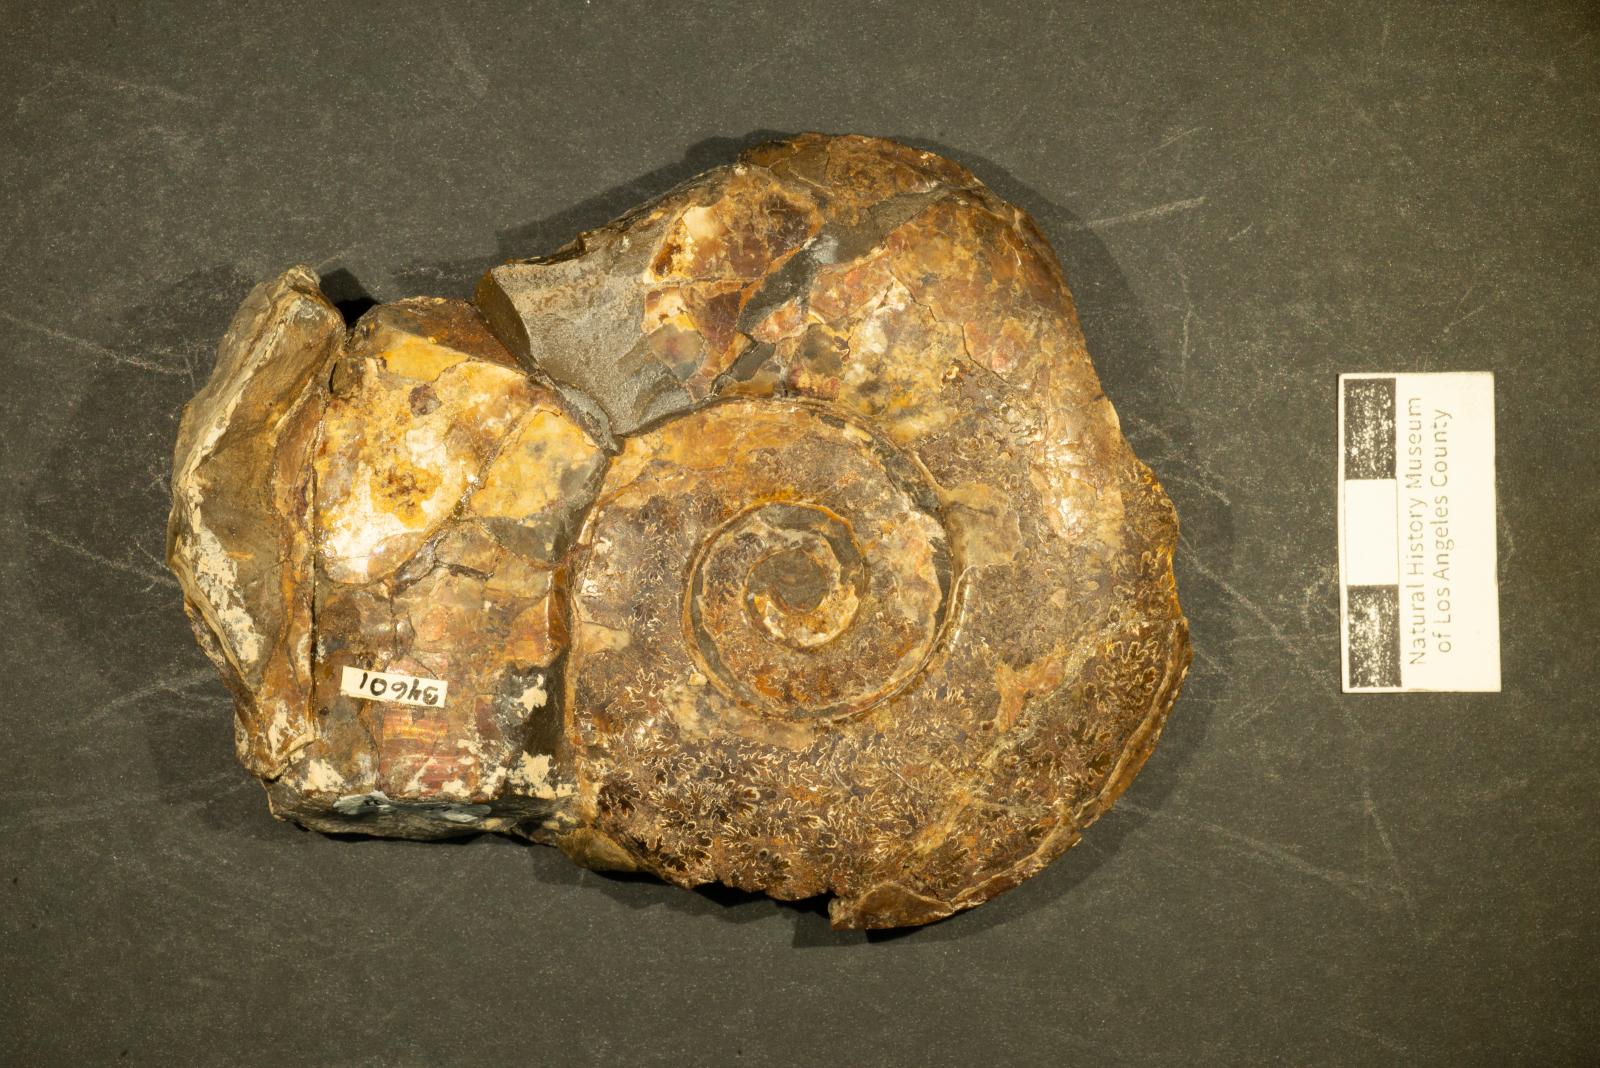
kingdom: Animalia
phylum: Mollusca
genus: Gardeniceras
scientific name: Gardeniceras Hauericeras angustum
